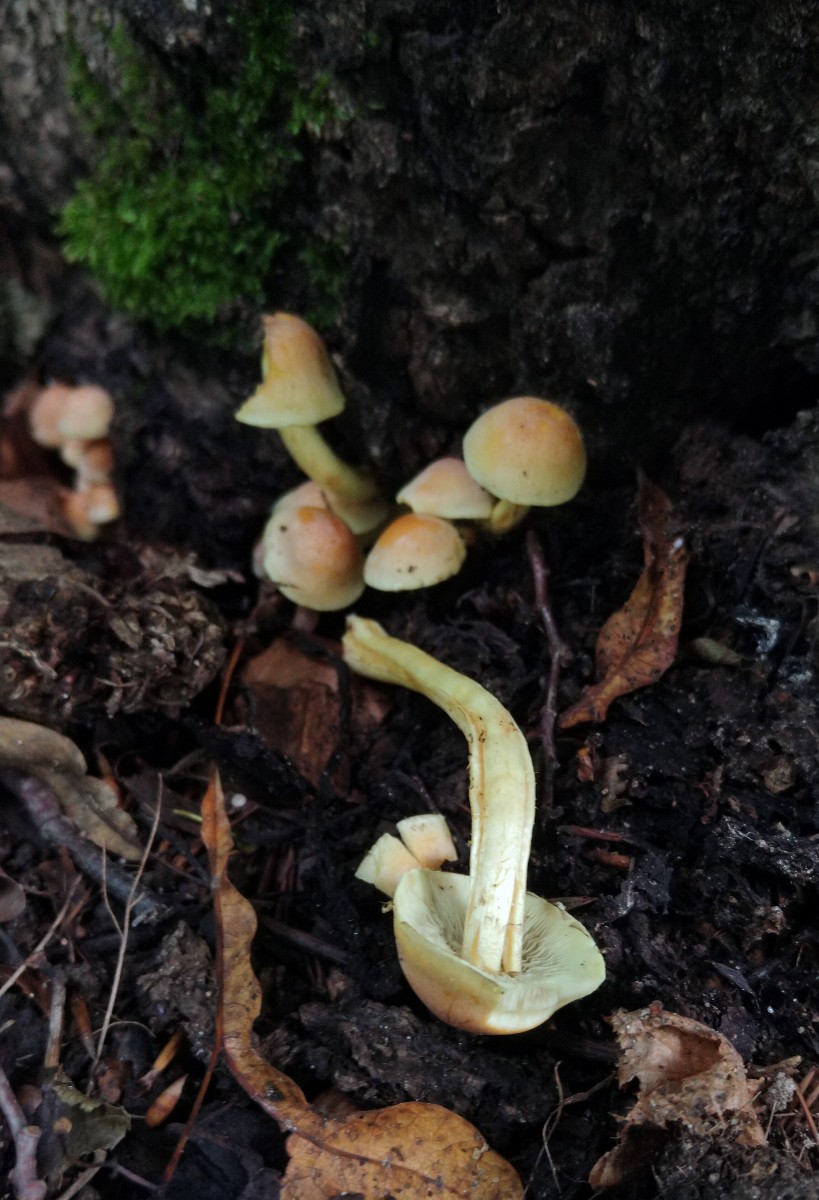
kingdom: Fungi
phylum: Basidiomycota
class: Agaricomycetes
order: Agaricales
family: Strophariaceae
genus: Hypholoma
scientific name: Hypholoma fasciculare
